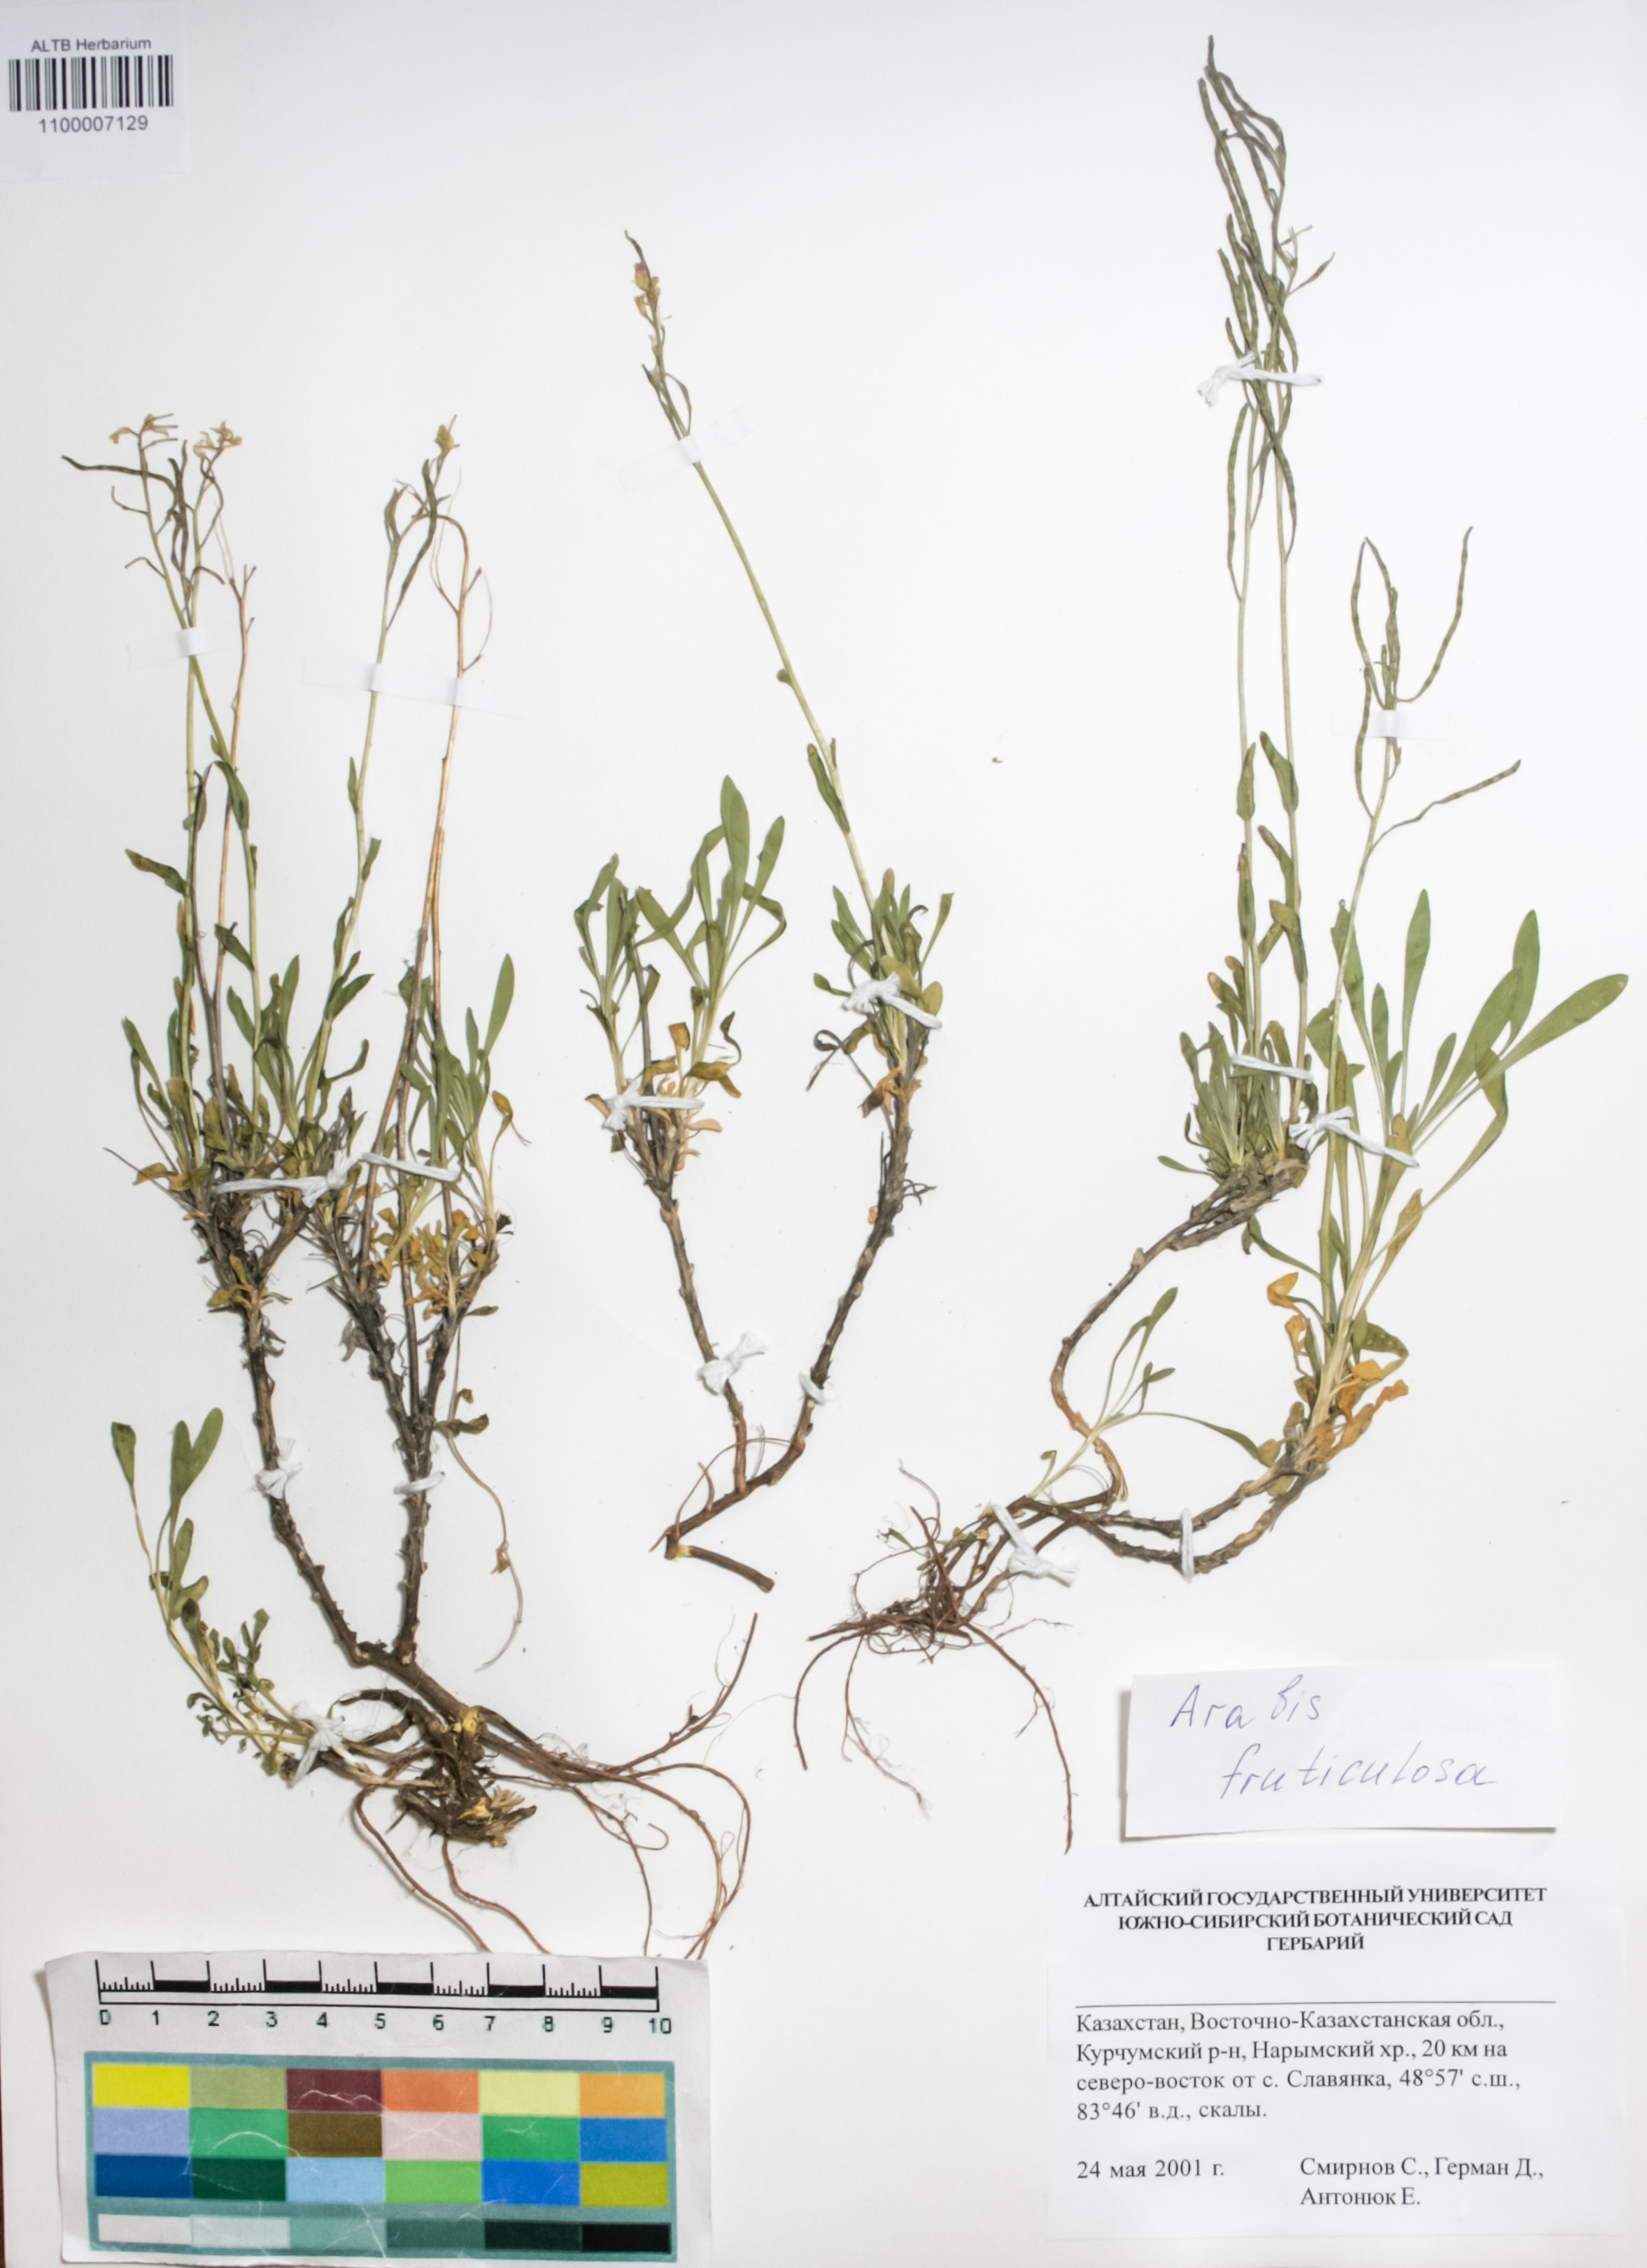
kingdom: Plantae
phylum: Tracheophyta
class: Magnoliopsida
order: Brassicales
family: Brassicaceae
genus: Dendroarabis
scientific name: Dendroarabis fruticulosa
